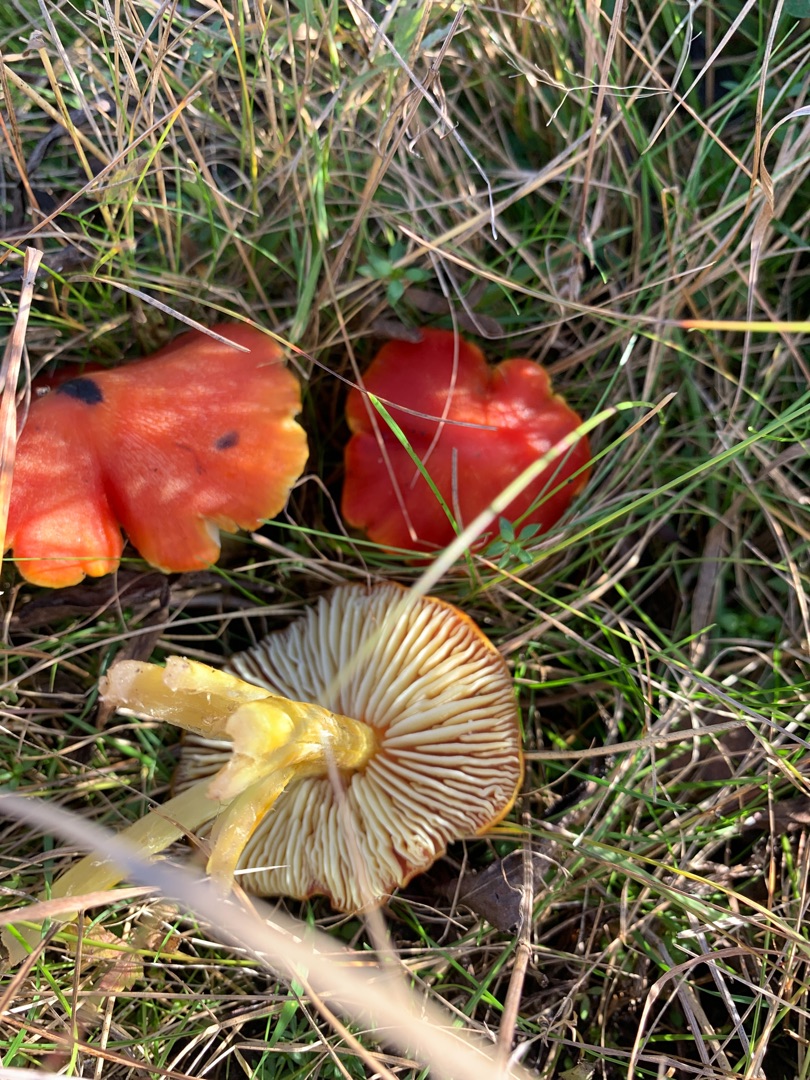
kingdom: Fungi
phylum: Basidiomycota
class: Agaricomycetes
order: Agaricales
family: Hygrophoraceae
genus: Hygrocybe
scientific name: Hygrocybe conica
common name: Kegle-vokshat
